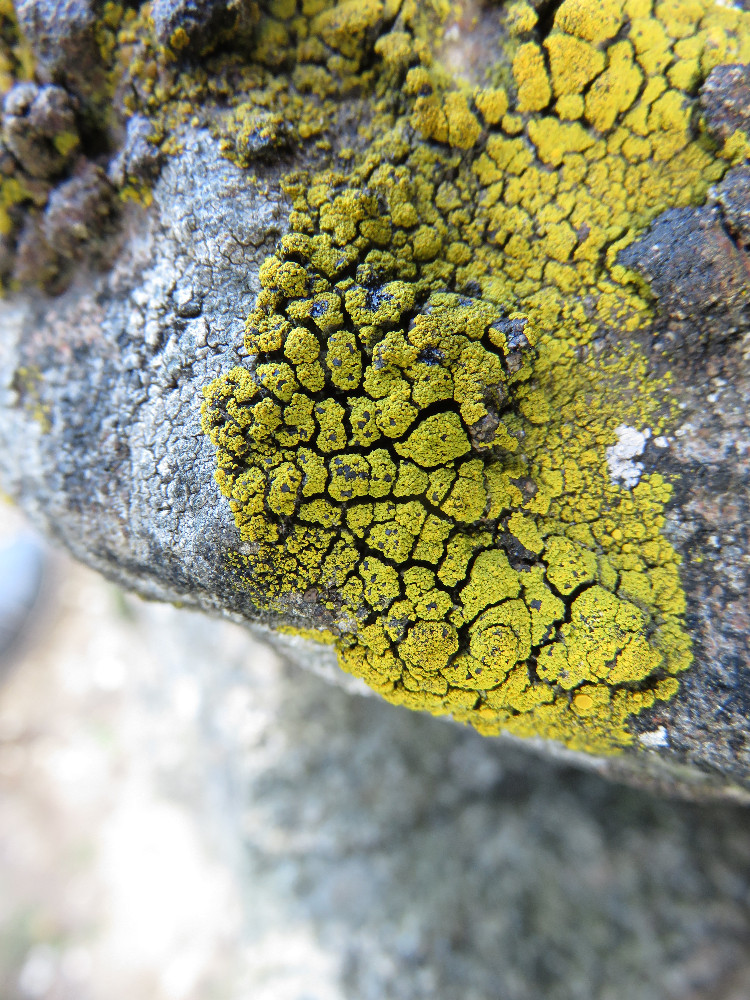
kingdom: Fungi
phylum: Ascomycota
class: Candelariomycetes
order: Candelariales
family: Candelariaceae
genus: Candelariella
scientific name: Candelariella coralliza
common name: pude-æggeblommelav
